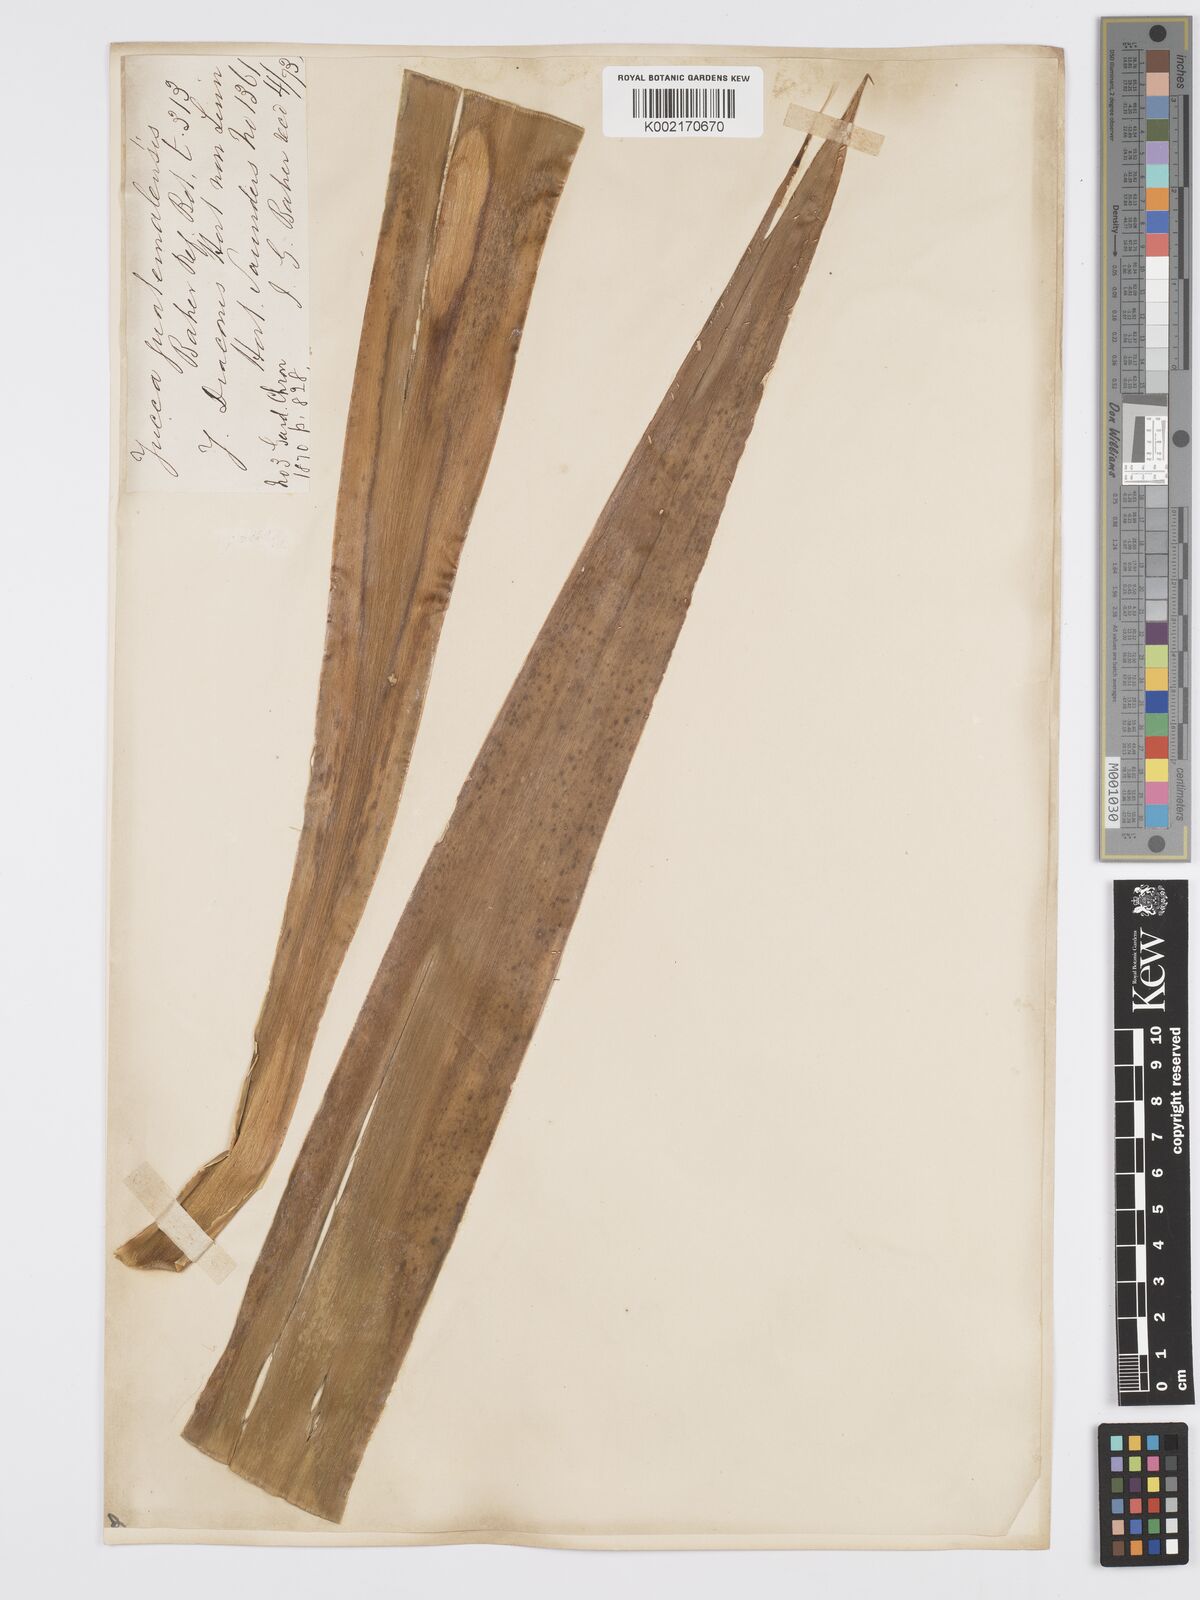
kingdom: Plantae
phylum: Tracheophyta
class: Liliopsida
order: Asparagales
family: Asparagaceae
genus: Yucca
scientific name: Yucca gigantea
